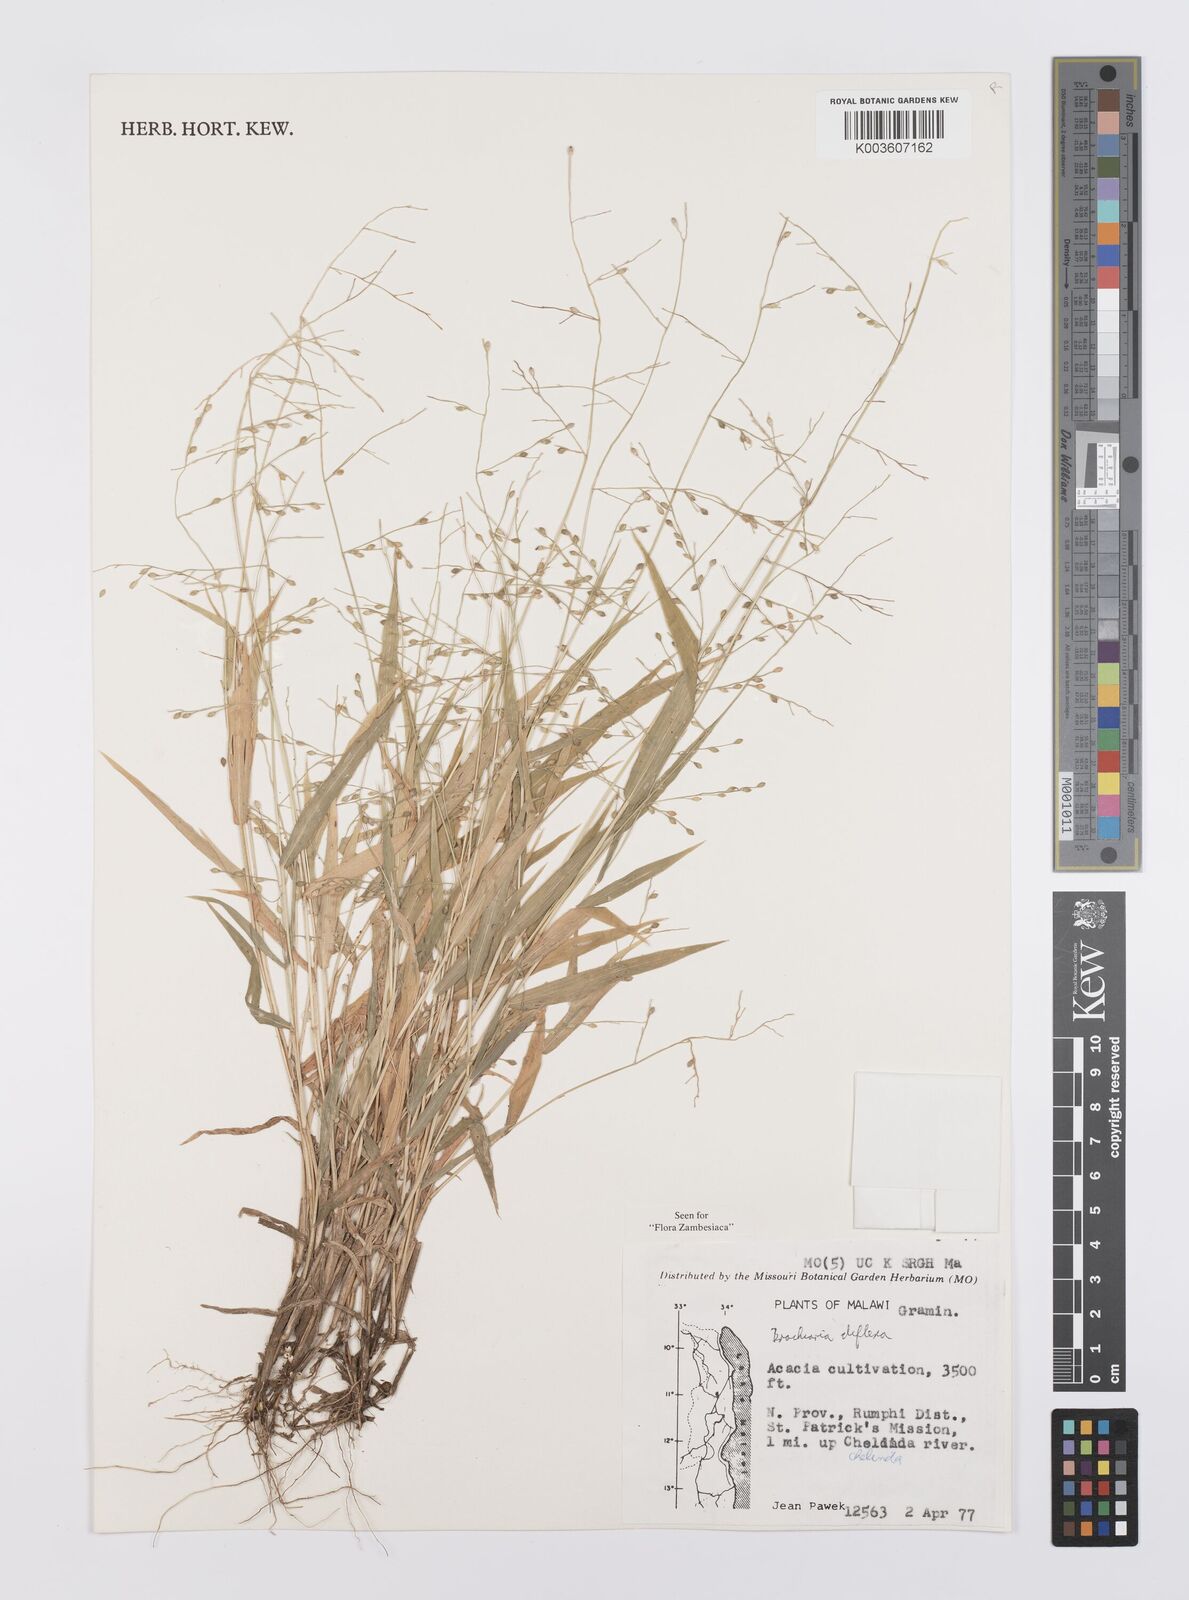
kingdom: Plantae
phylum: Tracheophyta
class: Liliopsida
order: Poales
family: Poaceae
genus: Urochloa
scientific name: Urochloa deflexa
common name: Guinea millet
